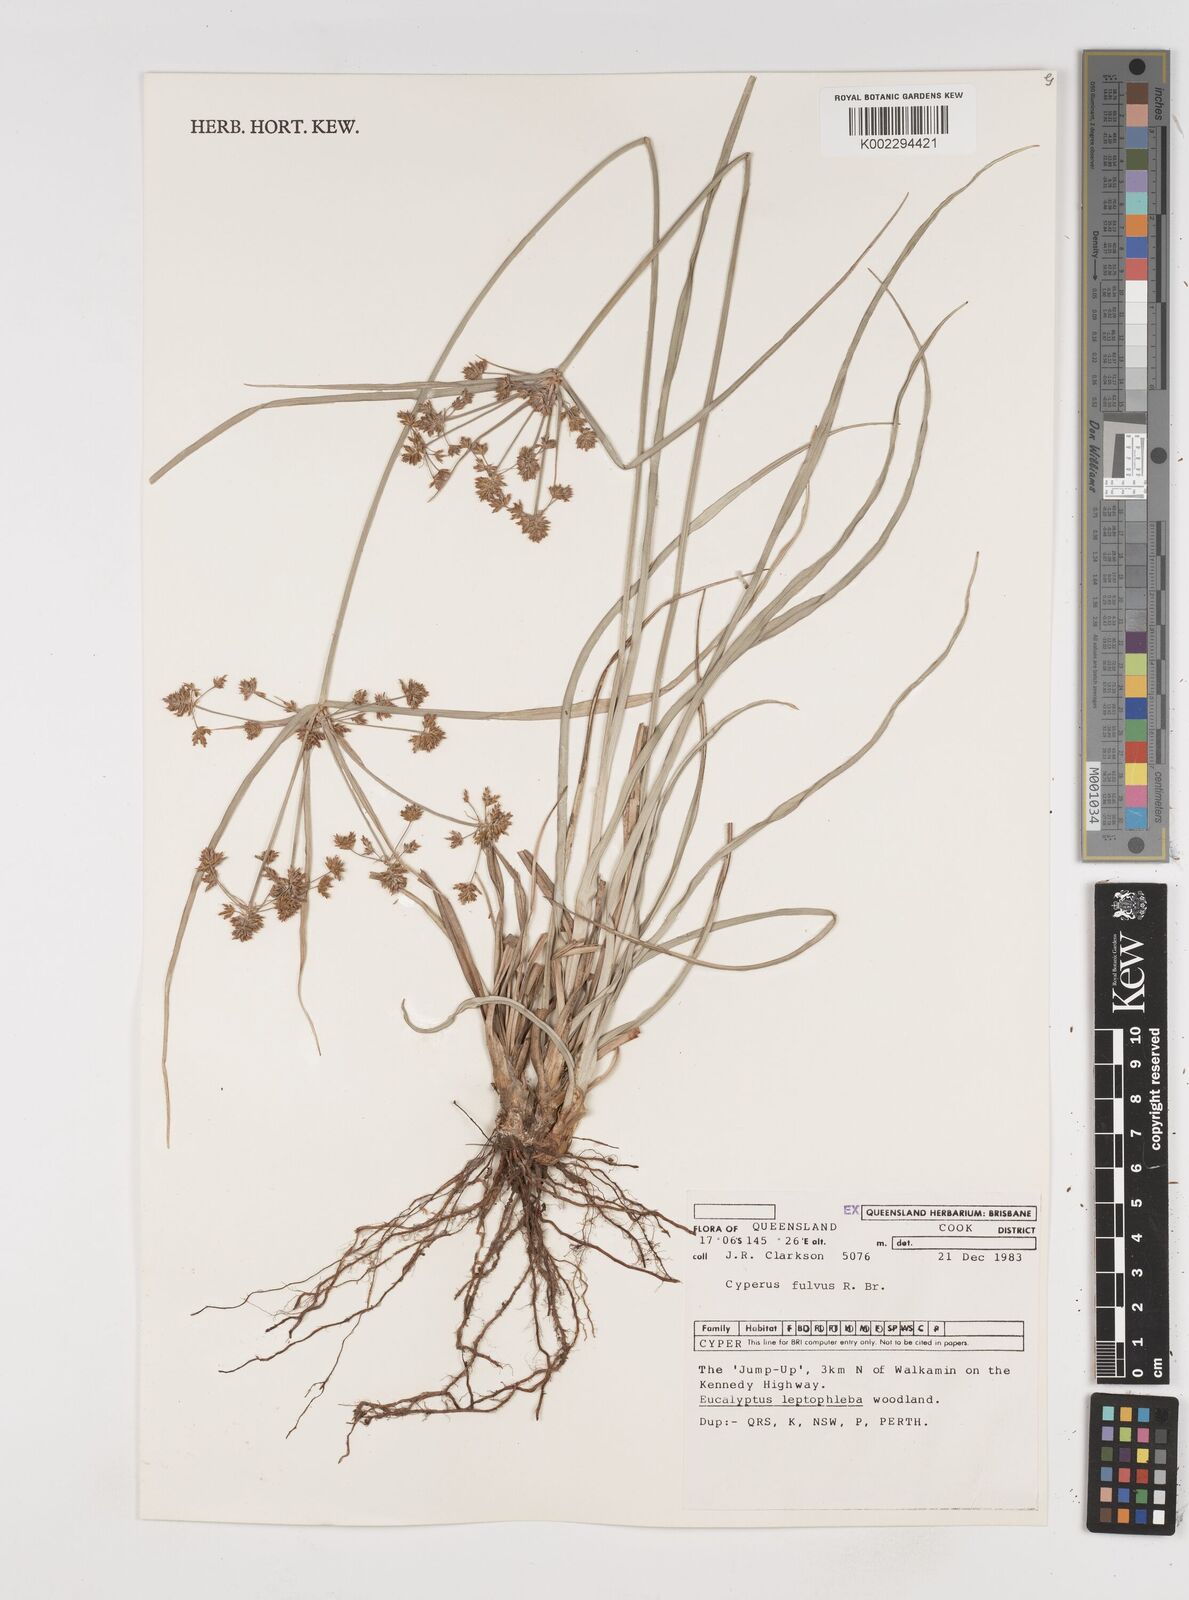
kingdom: Plantae
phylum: Tracheophyta
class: Liliopsida
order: Poales
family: Cyperaceae
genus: Cyperus
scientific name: Cyperus fulvus
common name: Sticky sedge
